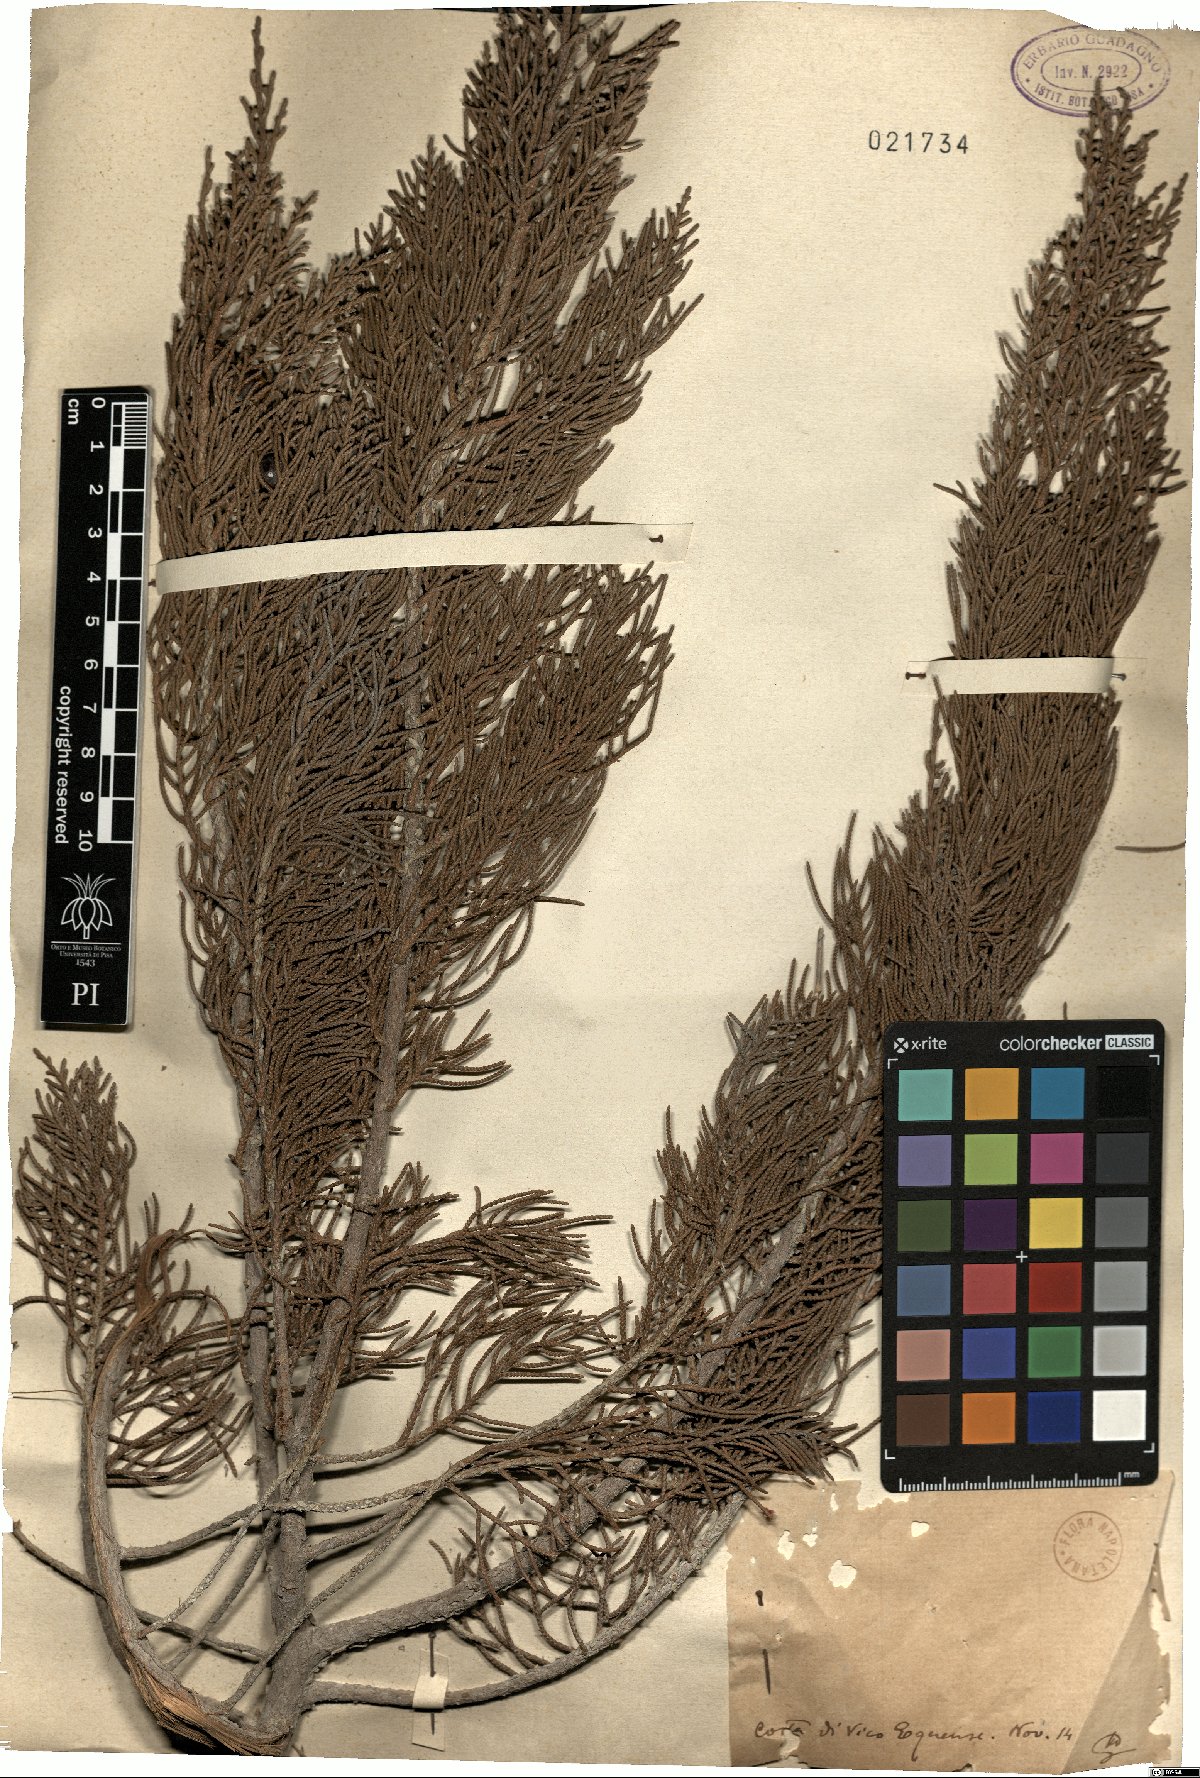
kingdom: Plantae
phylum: Tracheophyta
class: Pinopsida
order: Pinales
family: Cupressaceae
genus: Juniperus
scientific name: Juniperus phoenicea
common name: Phoenician juniper
